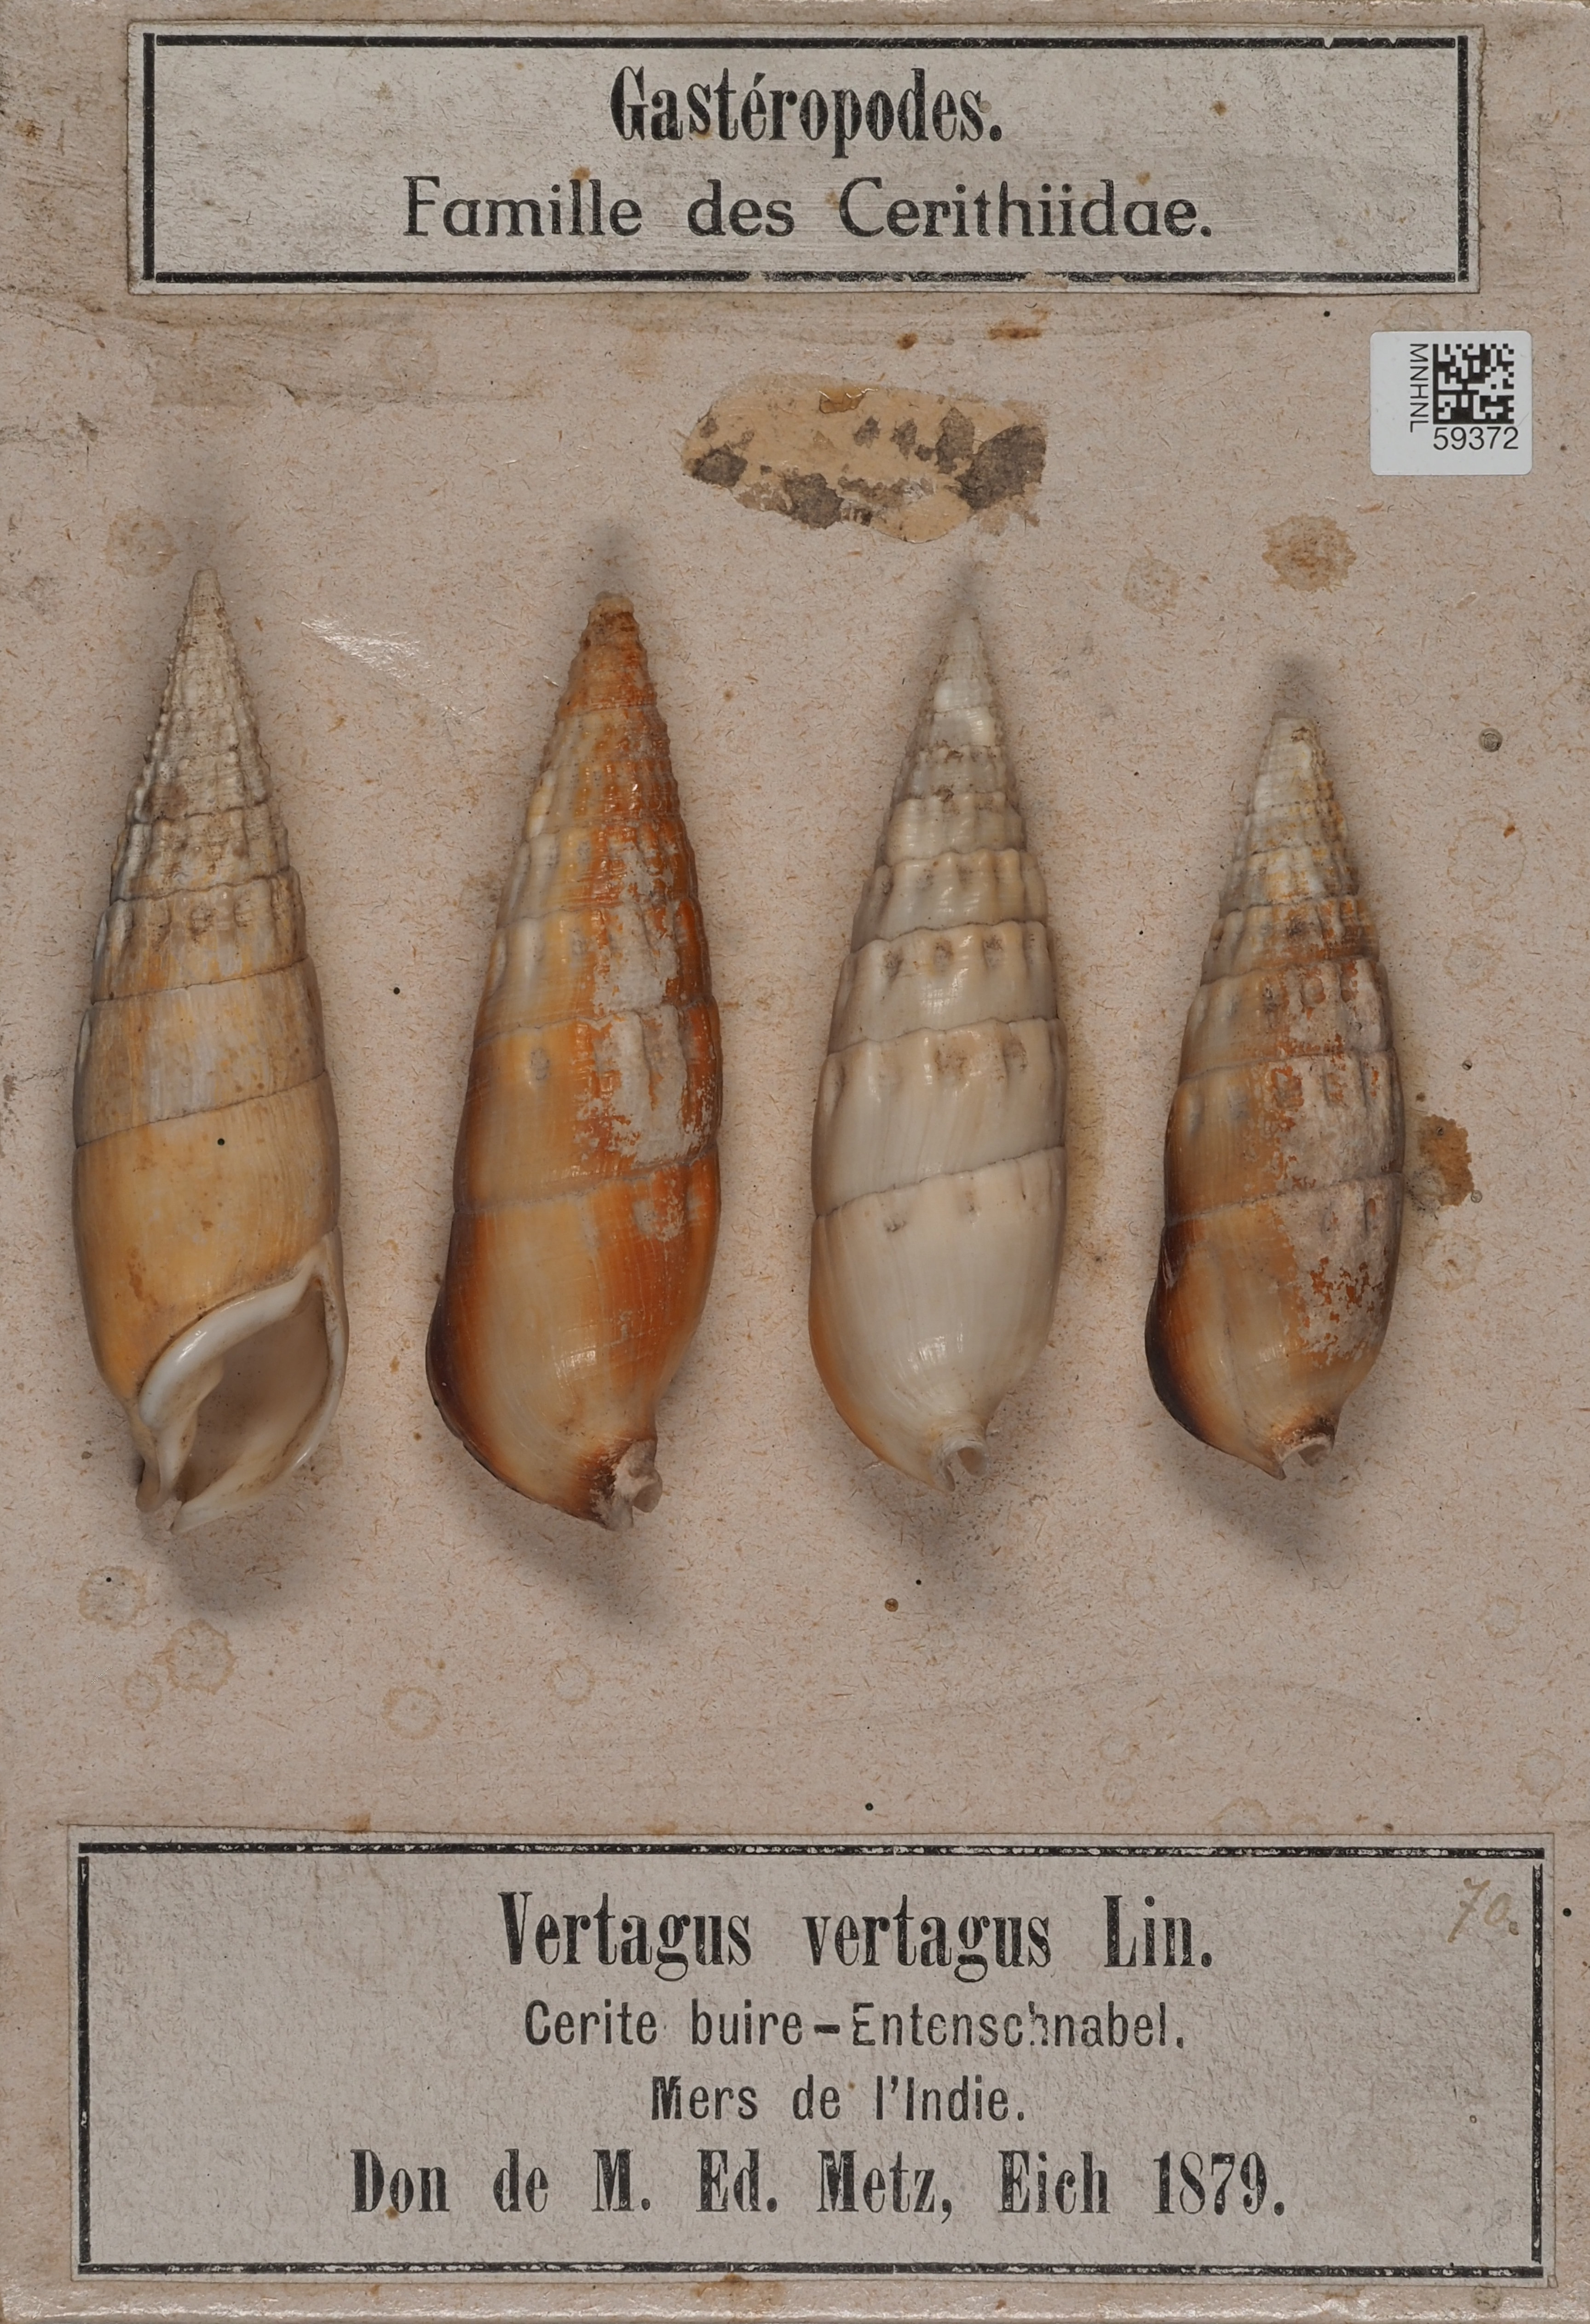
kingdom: Animalia
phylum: Mollusca
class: Gastropoda
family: Cerithiidae
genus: Rhinoclavis
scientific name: Rhinoclavis vertagus
